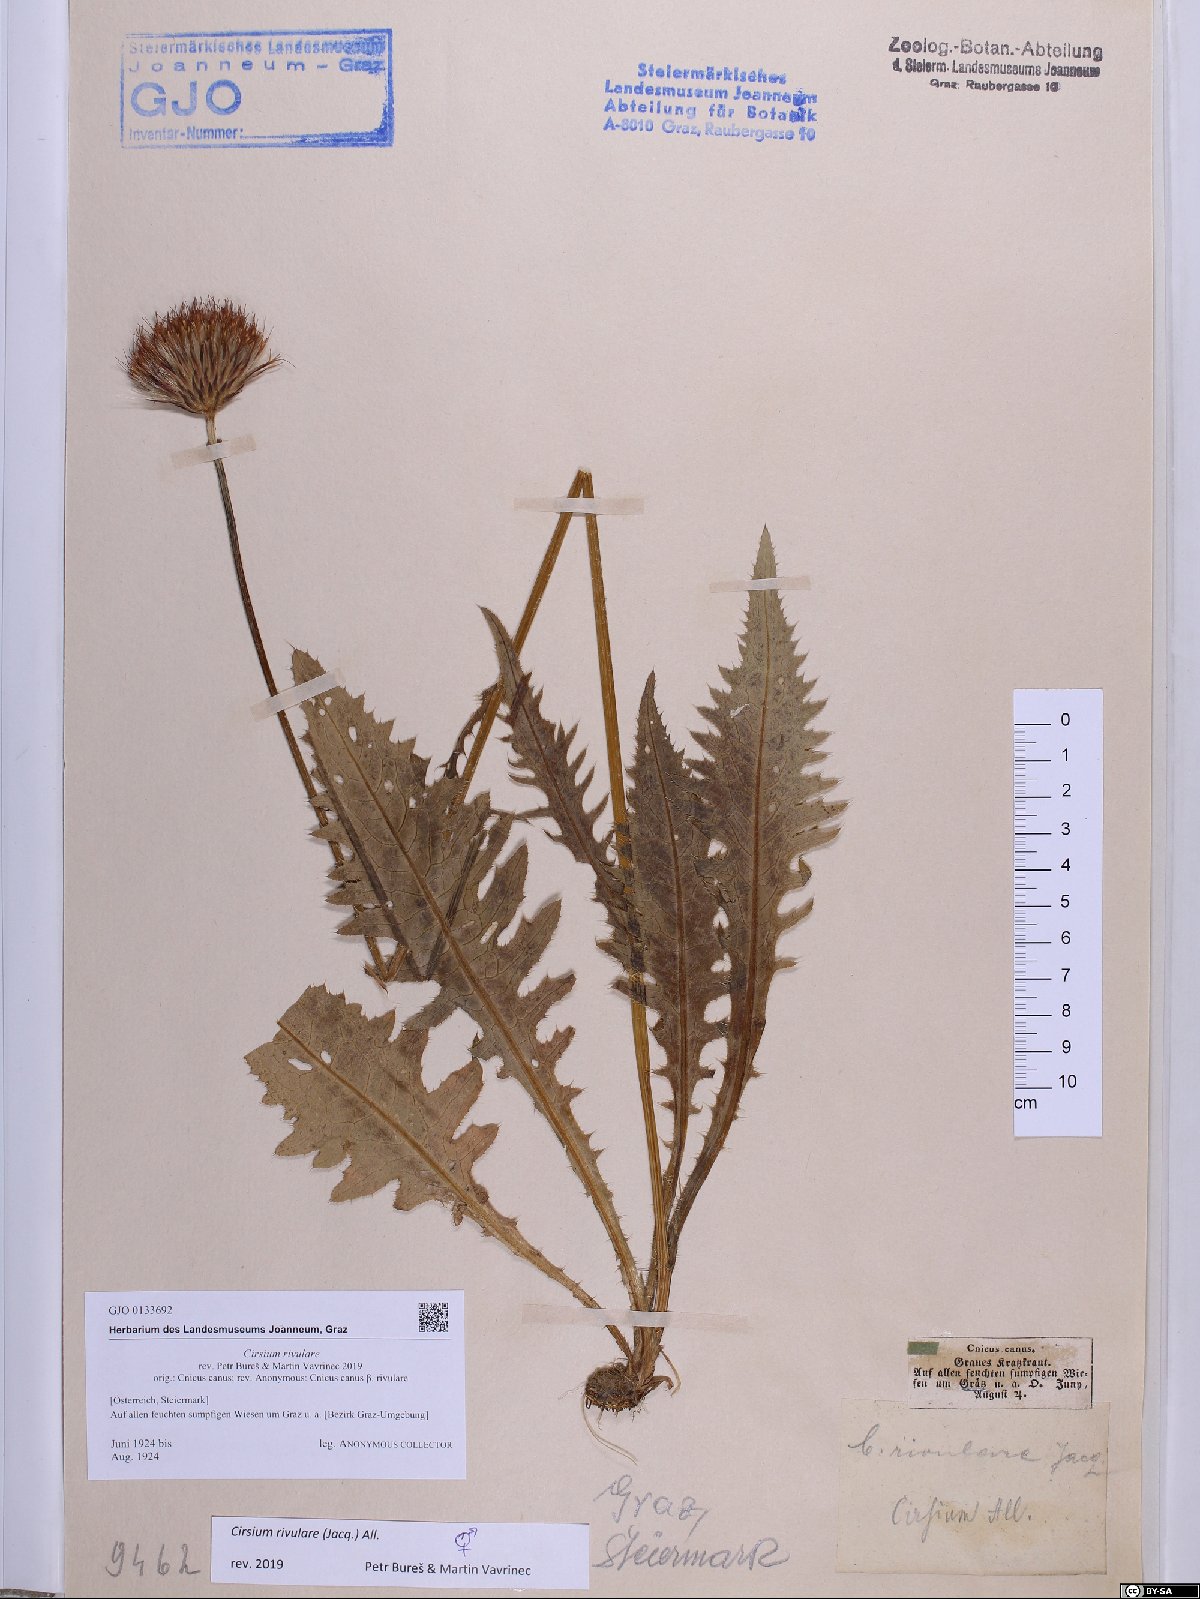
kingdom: Plantae
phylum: Tracheophyta
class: Magnoliopsida
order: Asterales
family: Asteraceae
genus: Cirsium
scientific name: Cirsium rivulare
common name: Brook thistle
